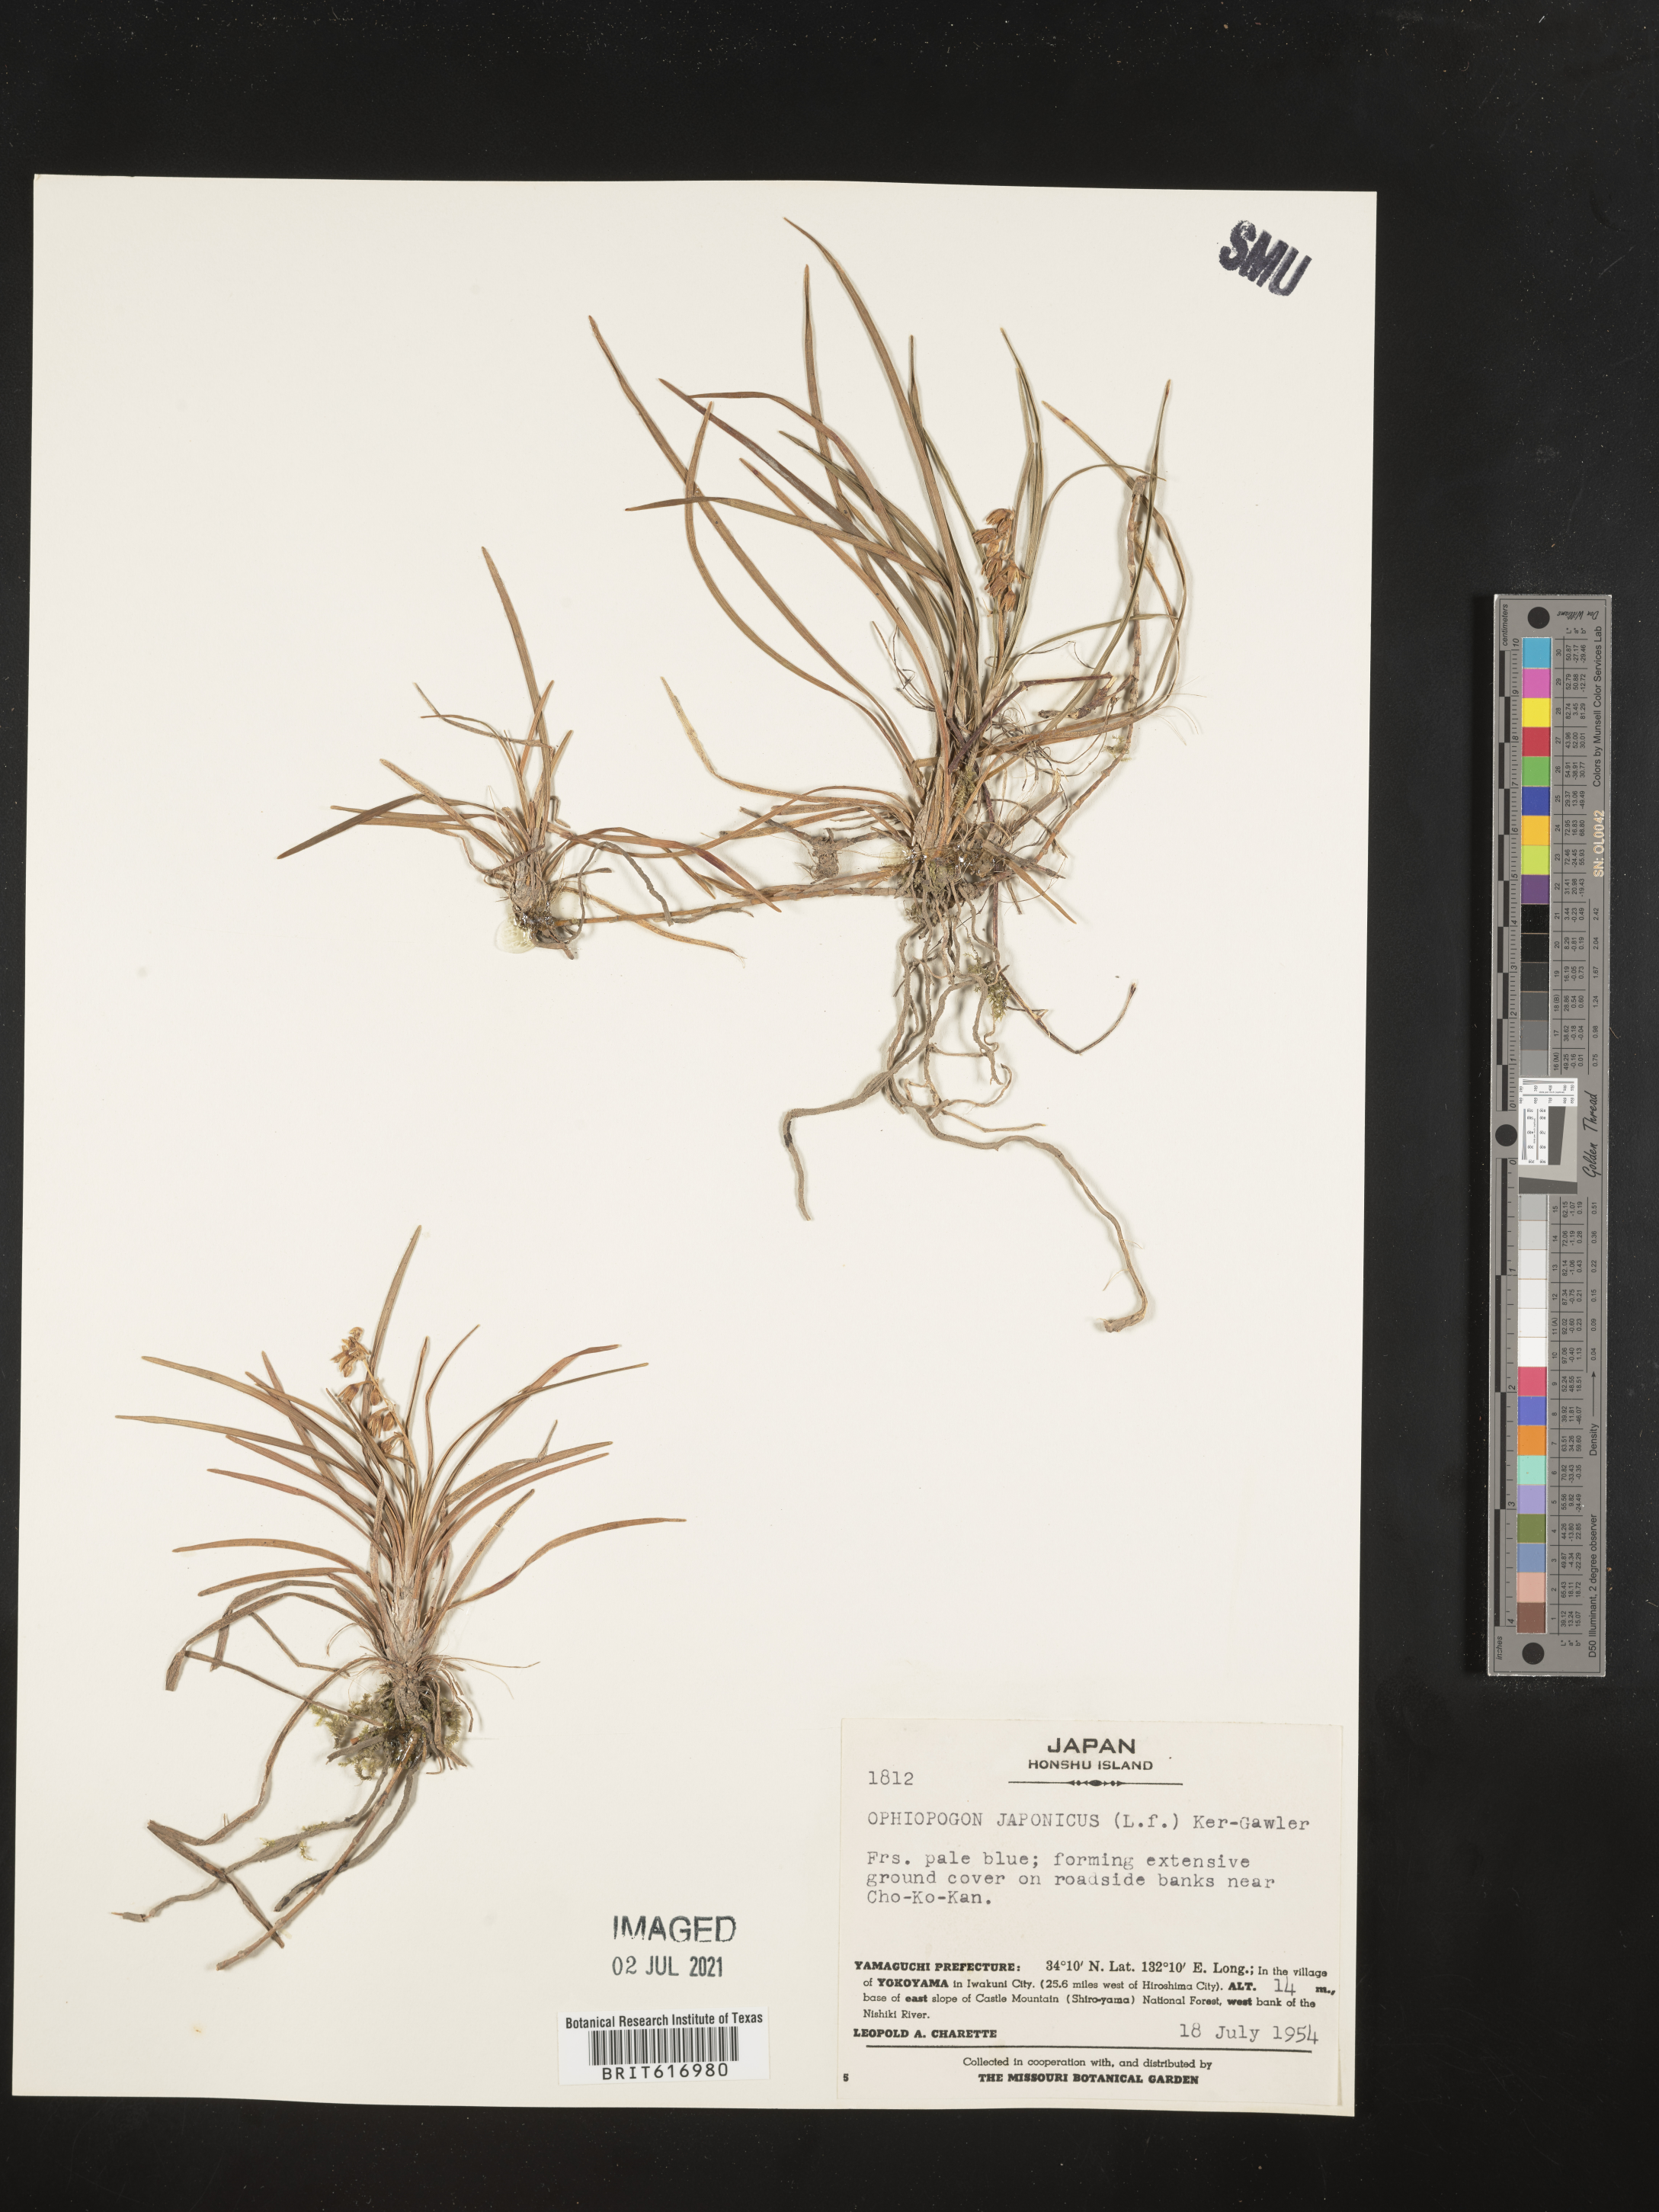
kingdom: Plantae
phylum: Tracheophyta
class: Liliopsida
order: Asparagales
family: Asparagaceae
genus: Ophiopogon
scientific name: Ophiopogon japonicus
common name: Dwarf lilyturf
